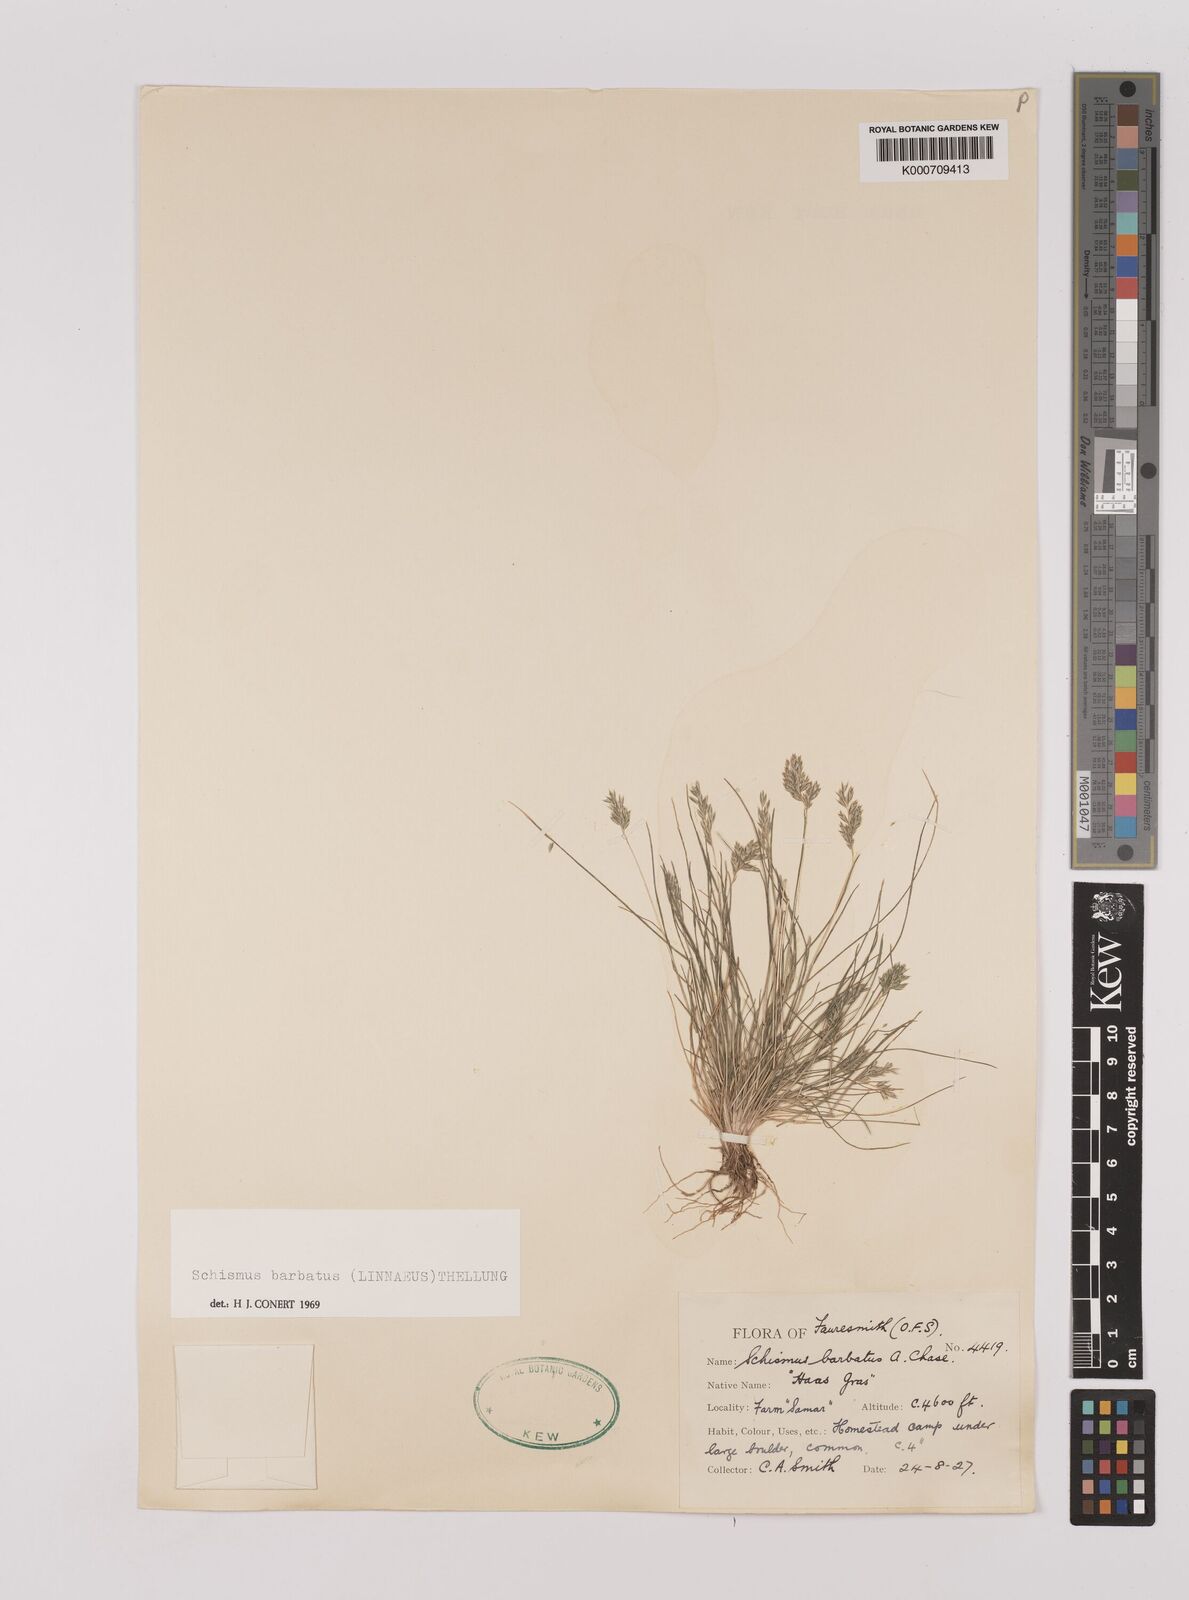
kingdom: Plantae
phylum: Tracheophyta
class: Liliopsida
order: Poales
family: Poaceae
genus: Schismus
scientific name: Schismus barbatus
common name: Kelch-grass
